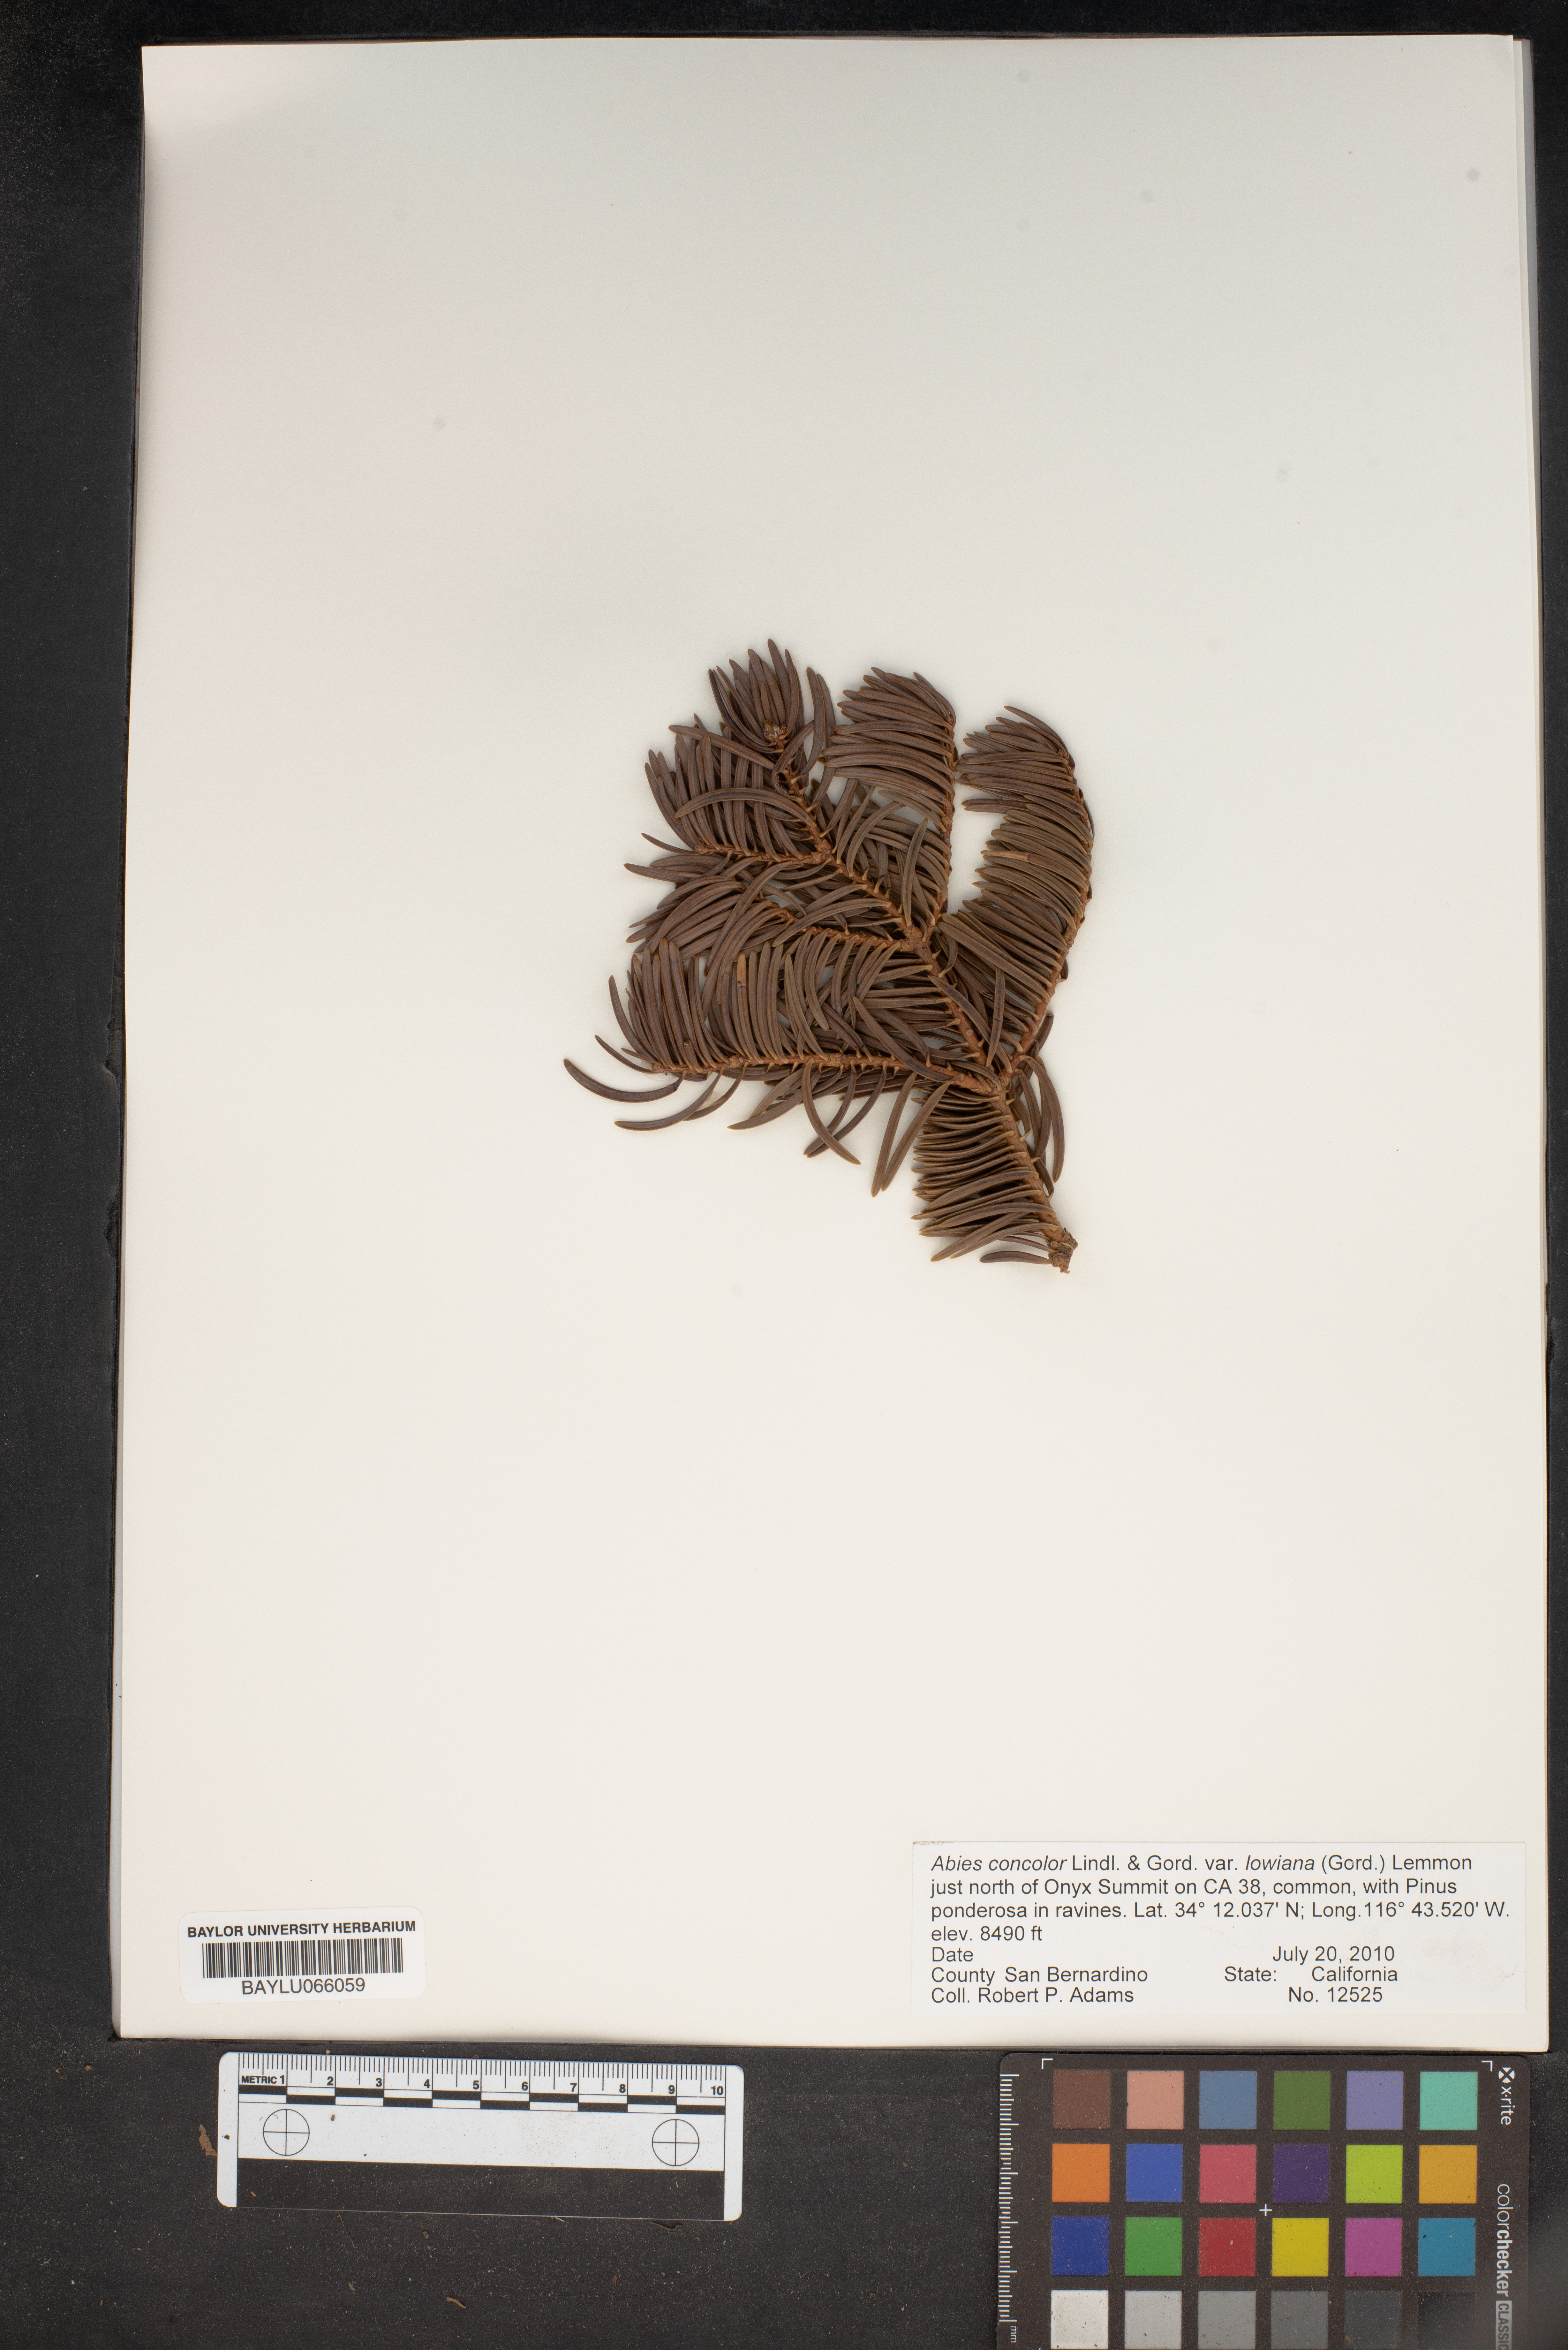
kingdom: Plantae
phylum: Tracheophyta
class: Pinopsida
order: Pinales
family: Pinaceae
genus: Abies
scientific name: Abies concolor
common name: Colorado fir
